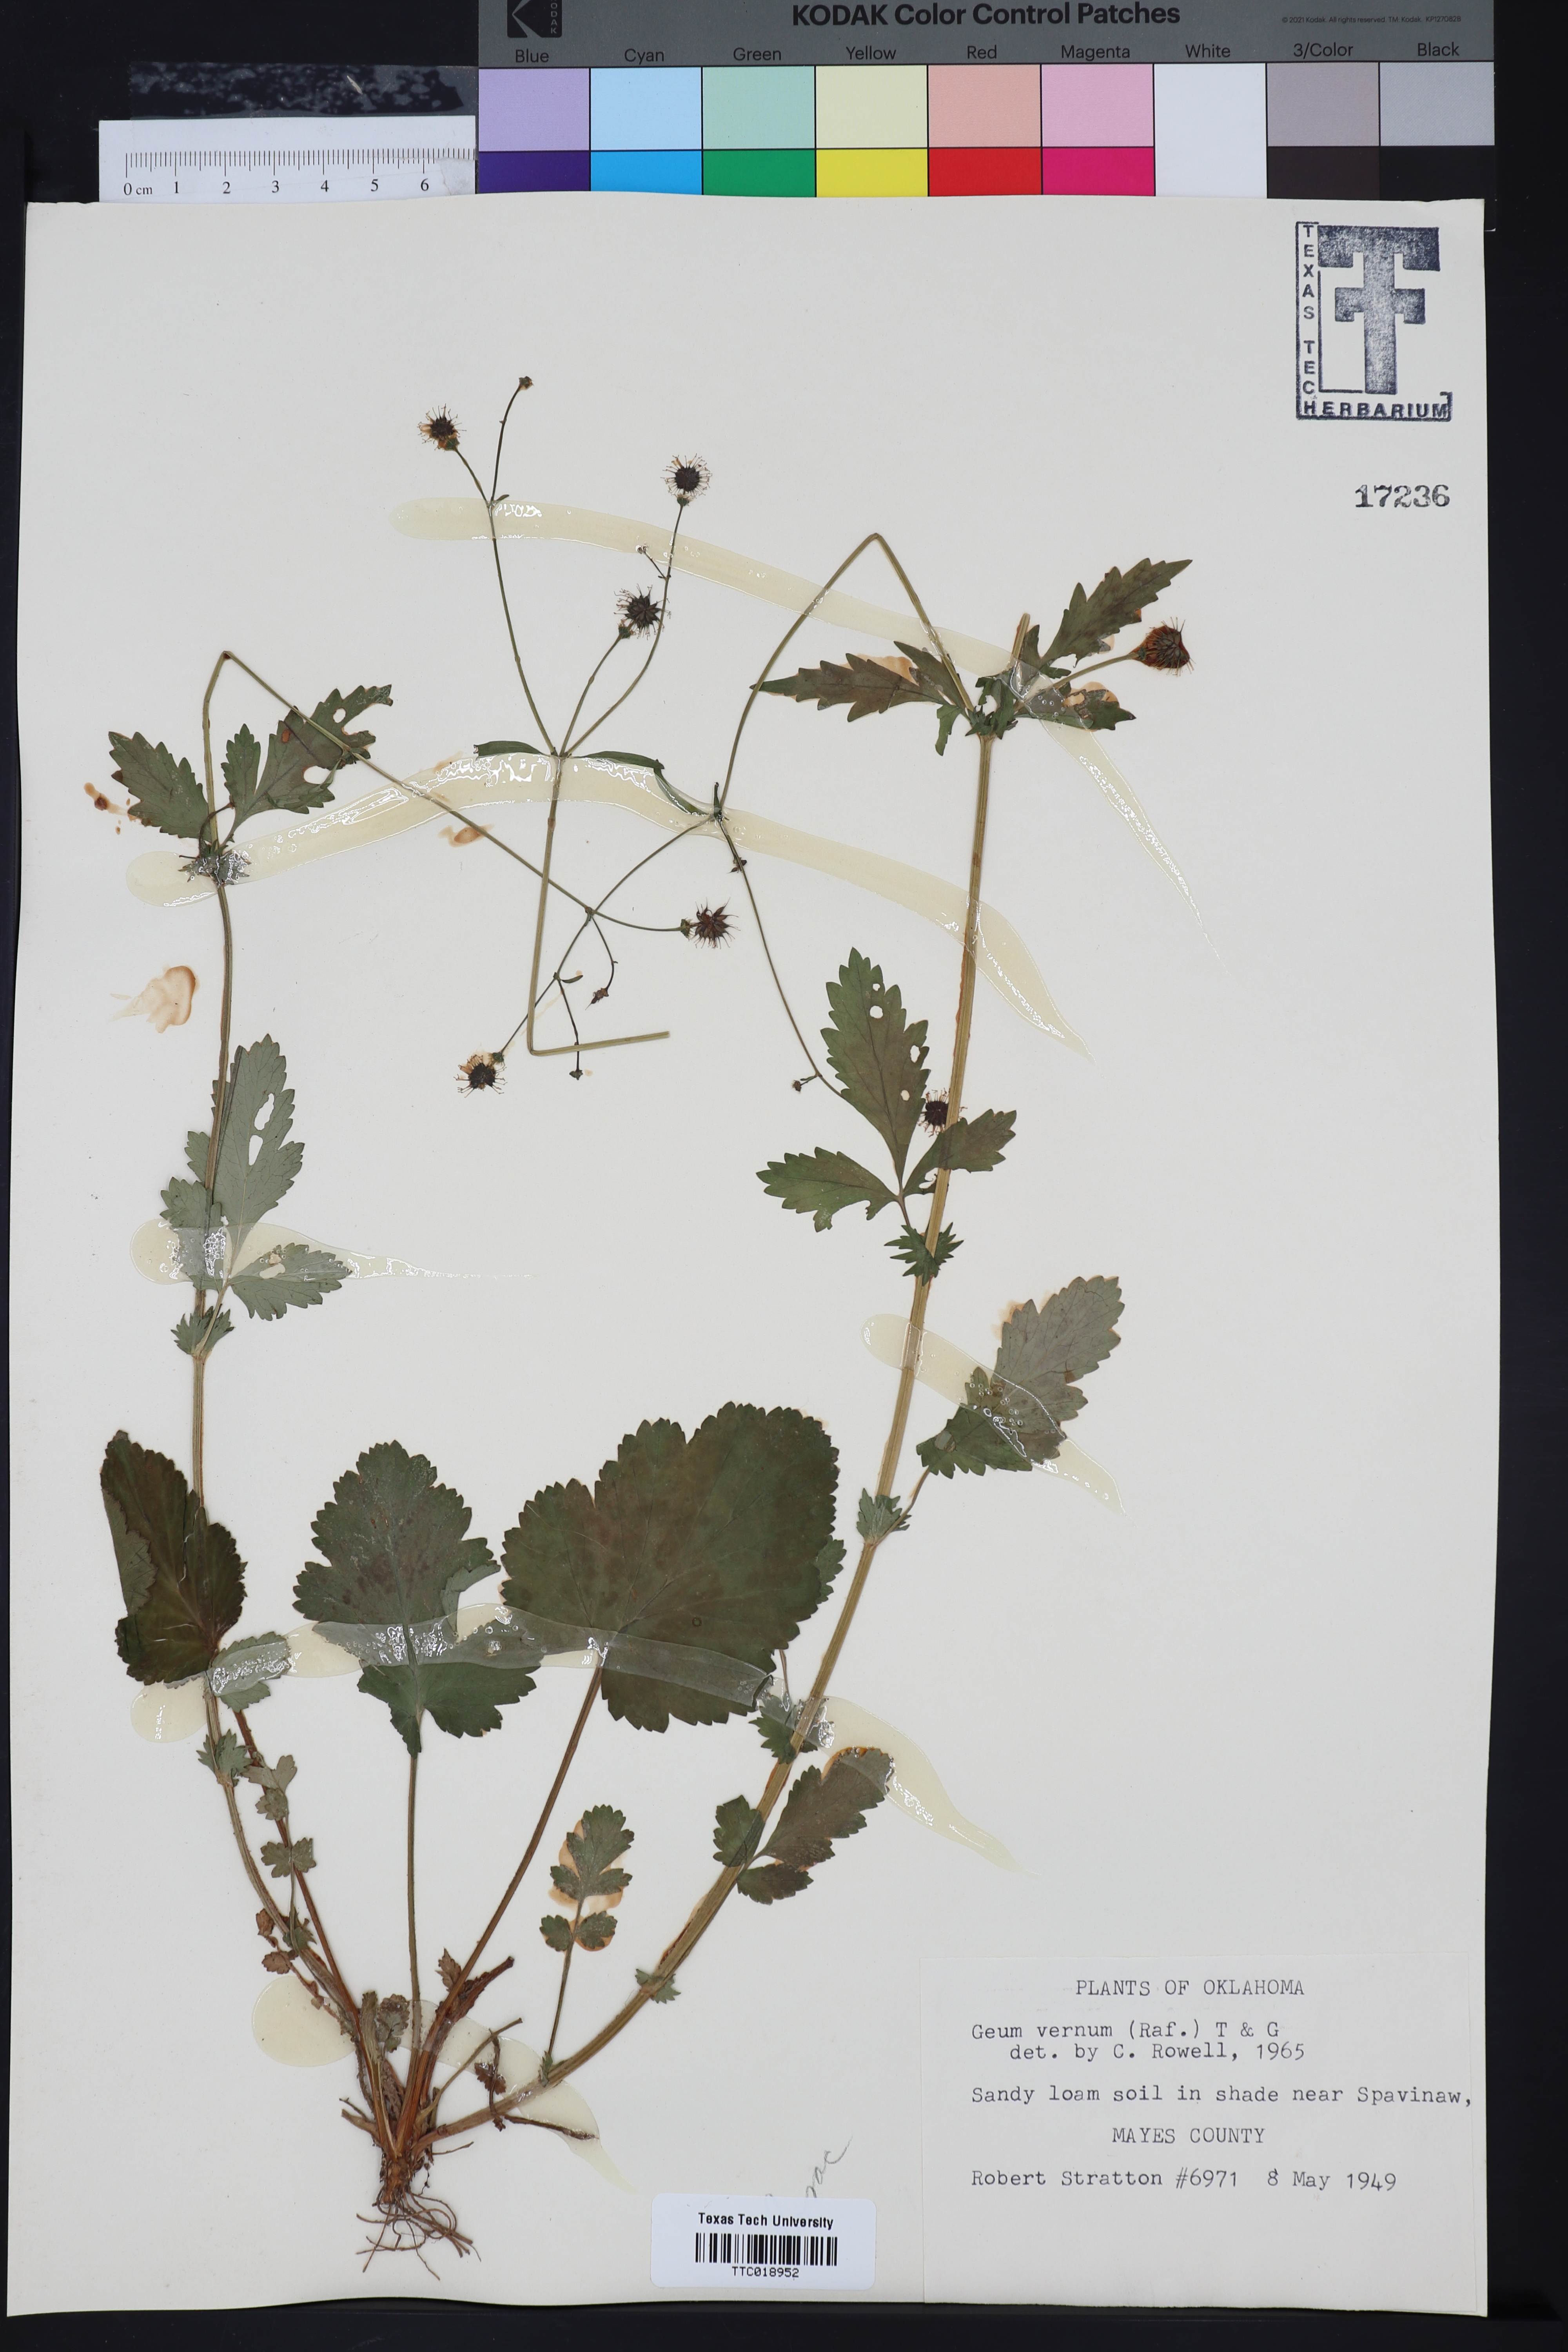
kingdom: Plantae
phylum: Tracheophyta
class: Magnoliopsida
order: Rosales
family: Rosaceae
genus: Geum
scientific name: Geum vernum
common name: Spring avens
